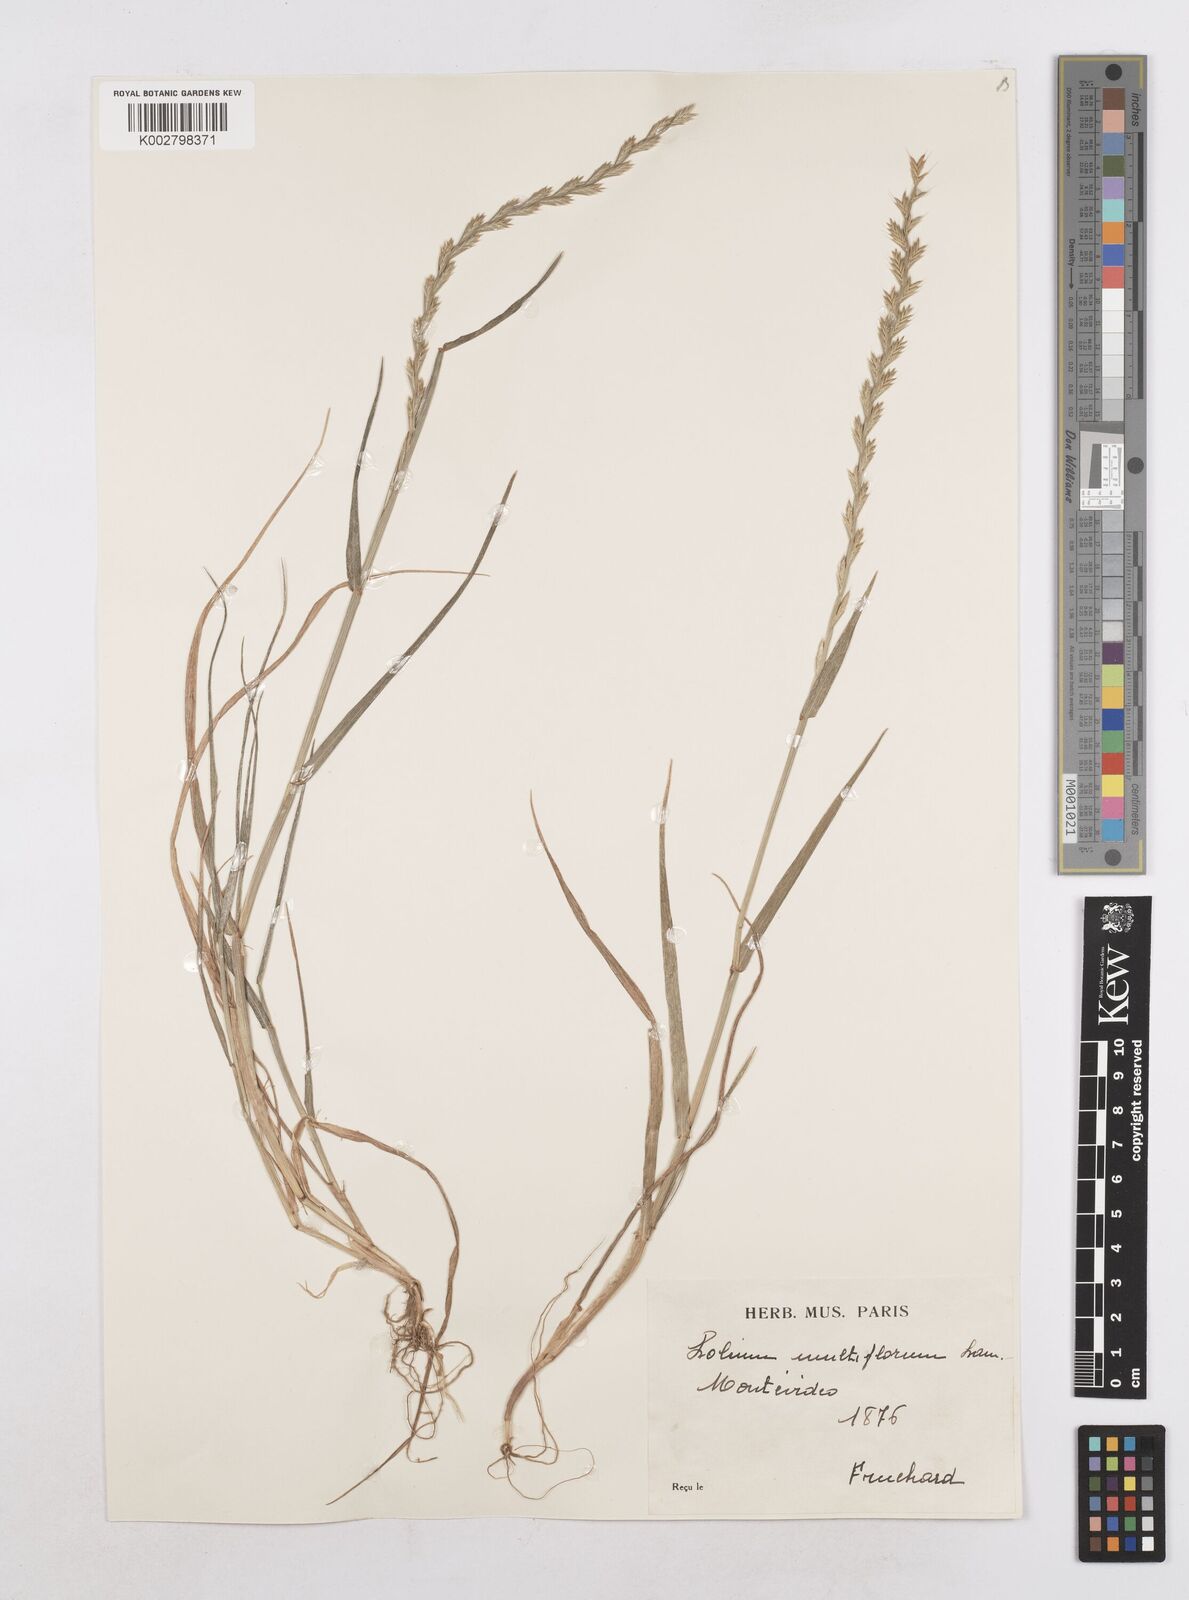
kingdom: Plantae
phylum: Tracheophyta
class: Liliopsida
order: Poales
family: Poaceae
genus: Lolium
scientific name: Lolium multiflorum
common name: Annual ryegrass
